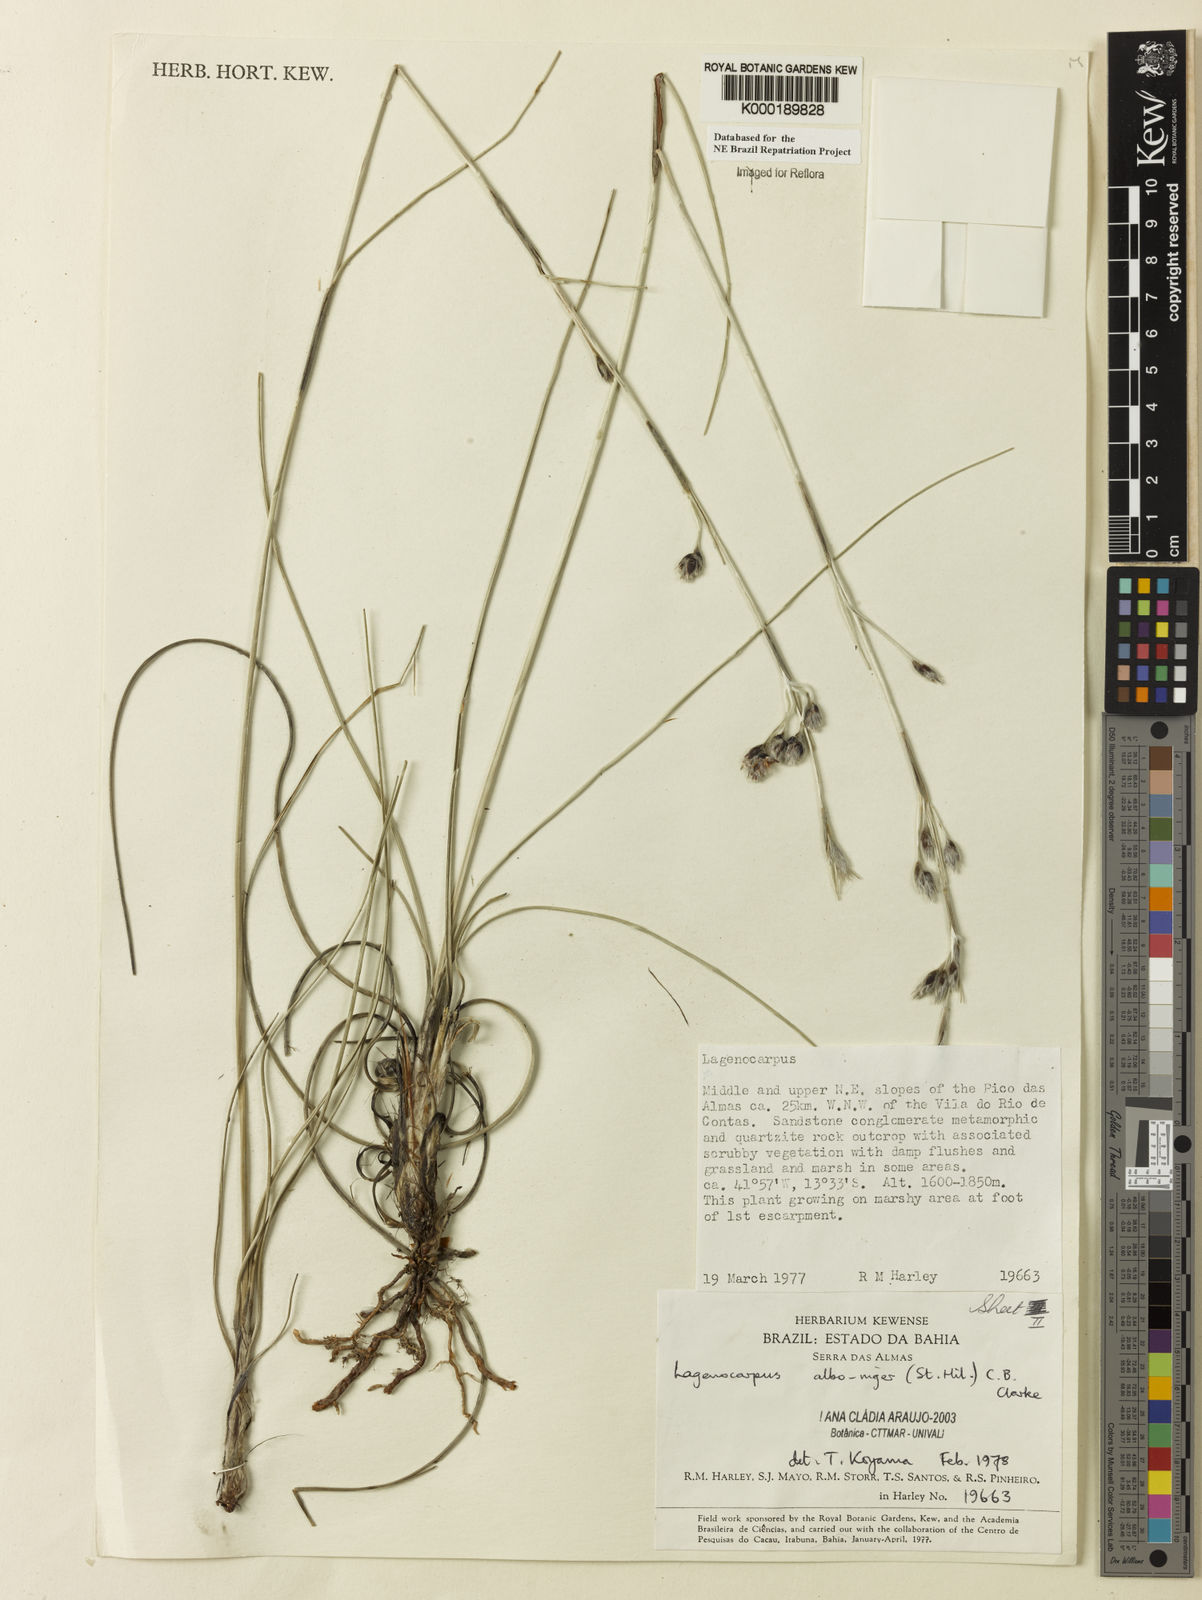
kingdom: Plantae
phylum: Tracheophyta
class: Liliopsida
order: Poales
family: Cyperaceae
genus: Lagenocarpus
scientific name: Lagenocarpus alboniger
